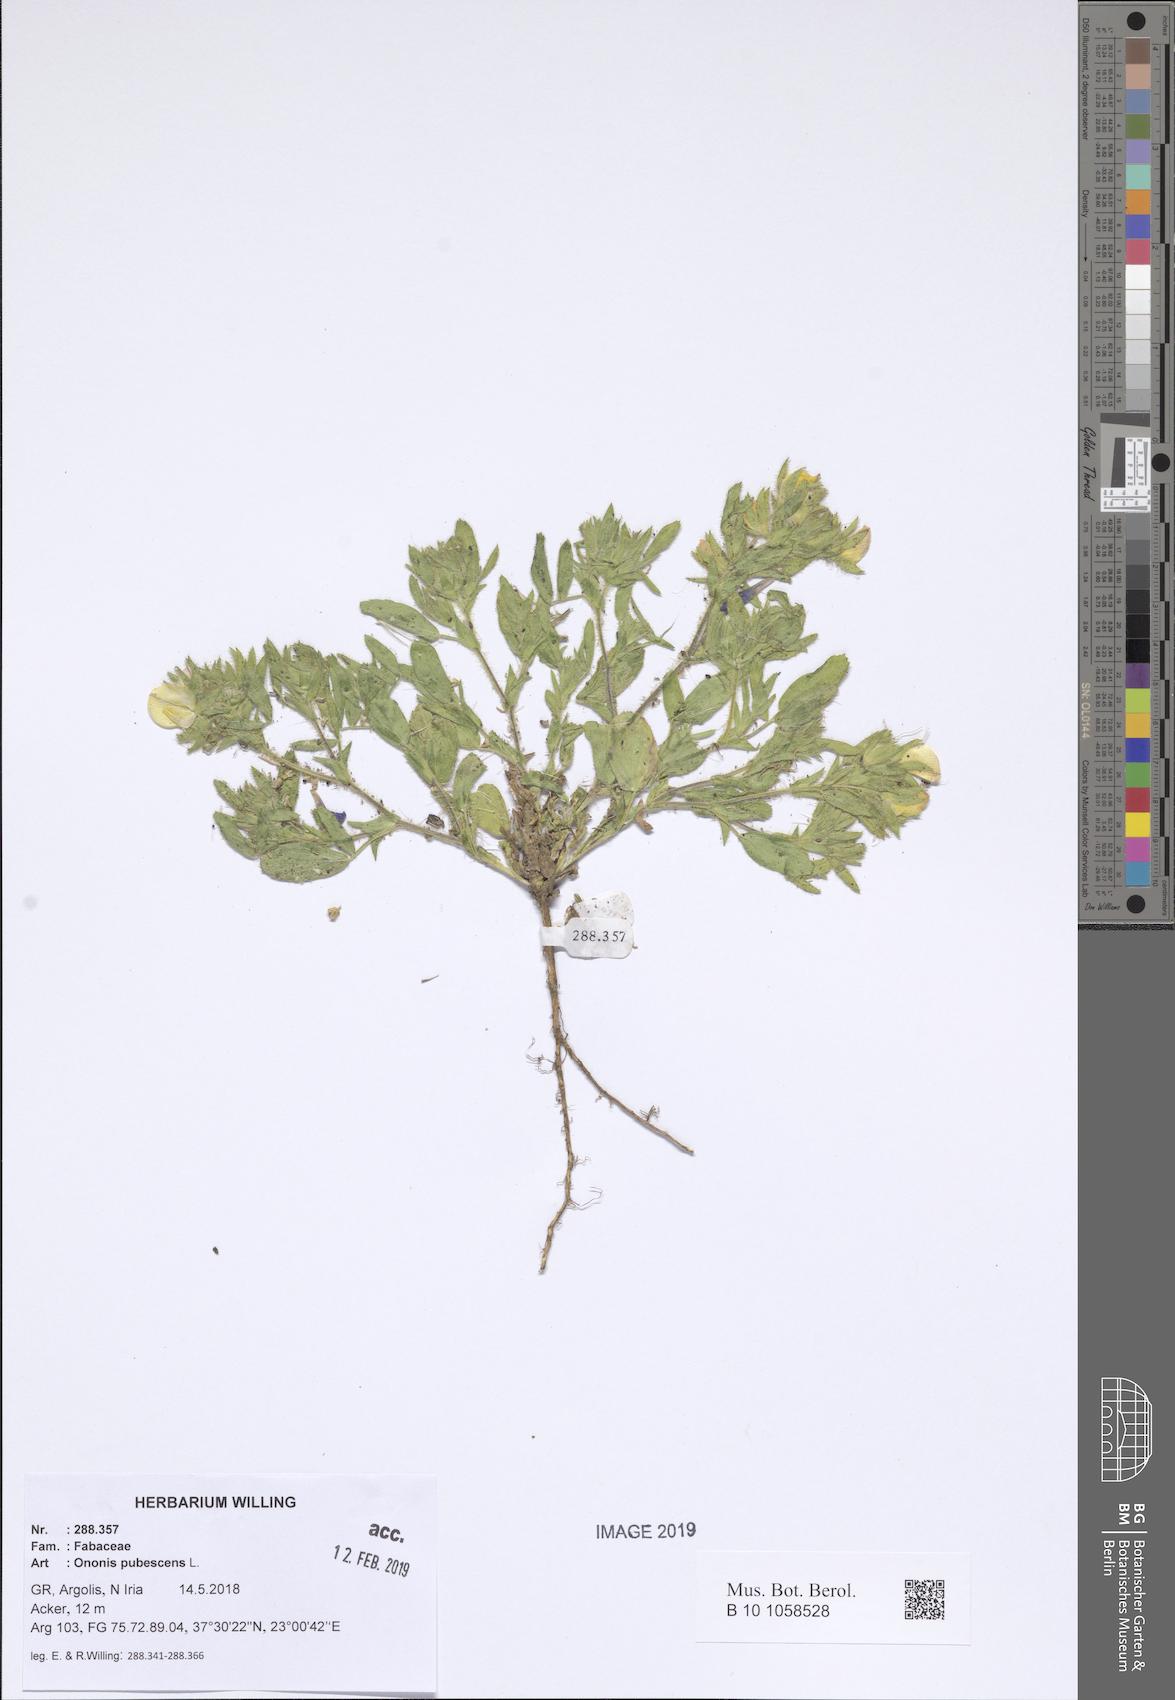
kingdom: Plantae
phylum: Tracheophyta
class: Magnoliopsida
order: Fabales
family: Fabaceae
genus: Ononis
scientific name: Ononis pubescens
